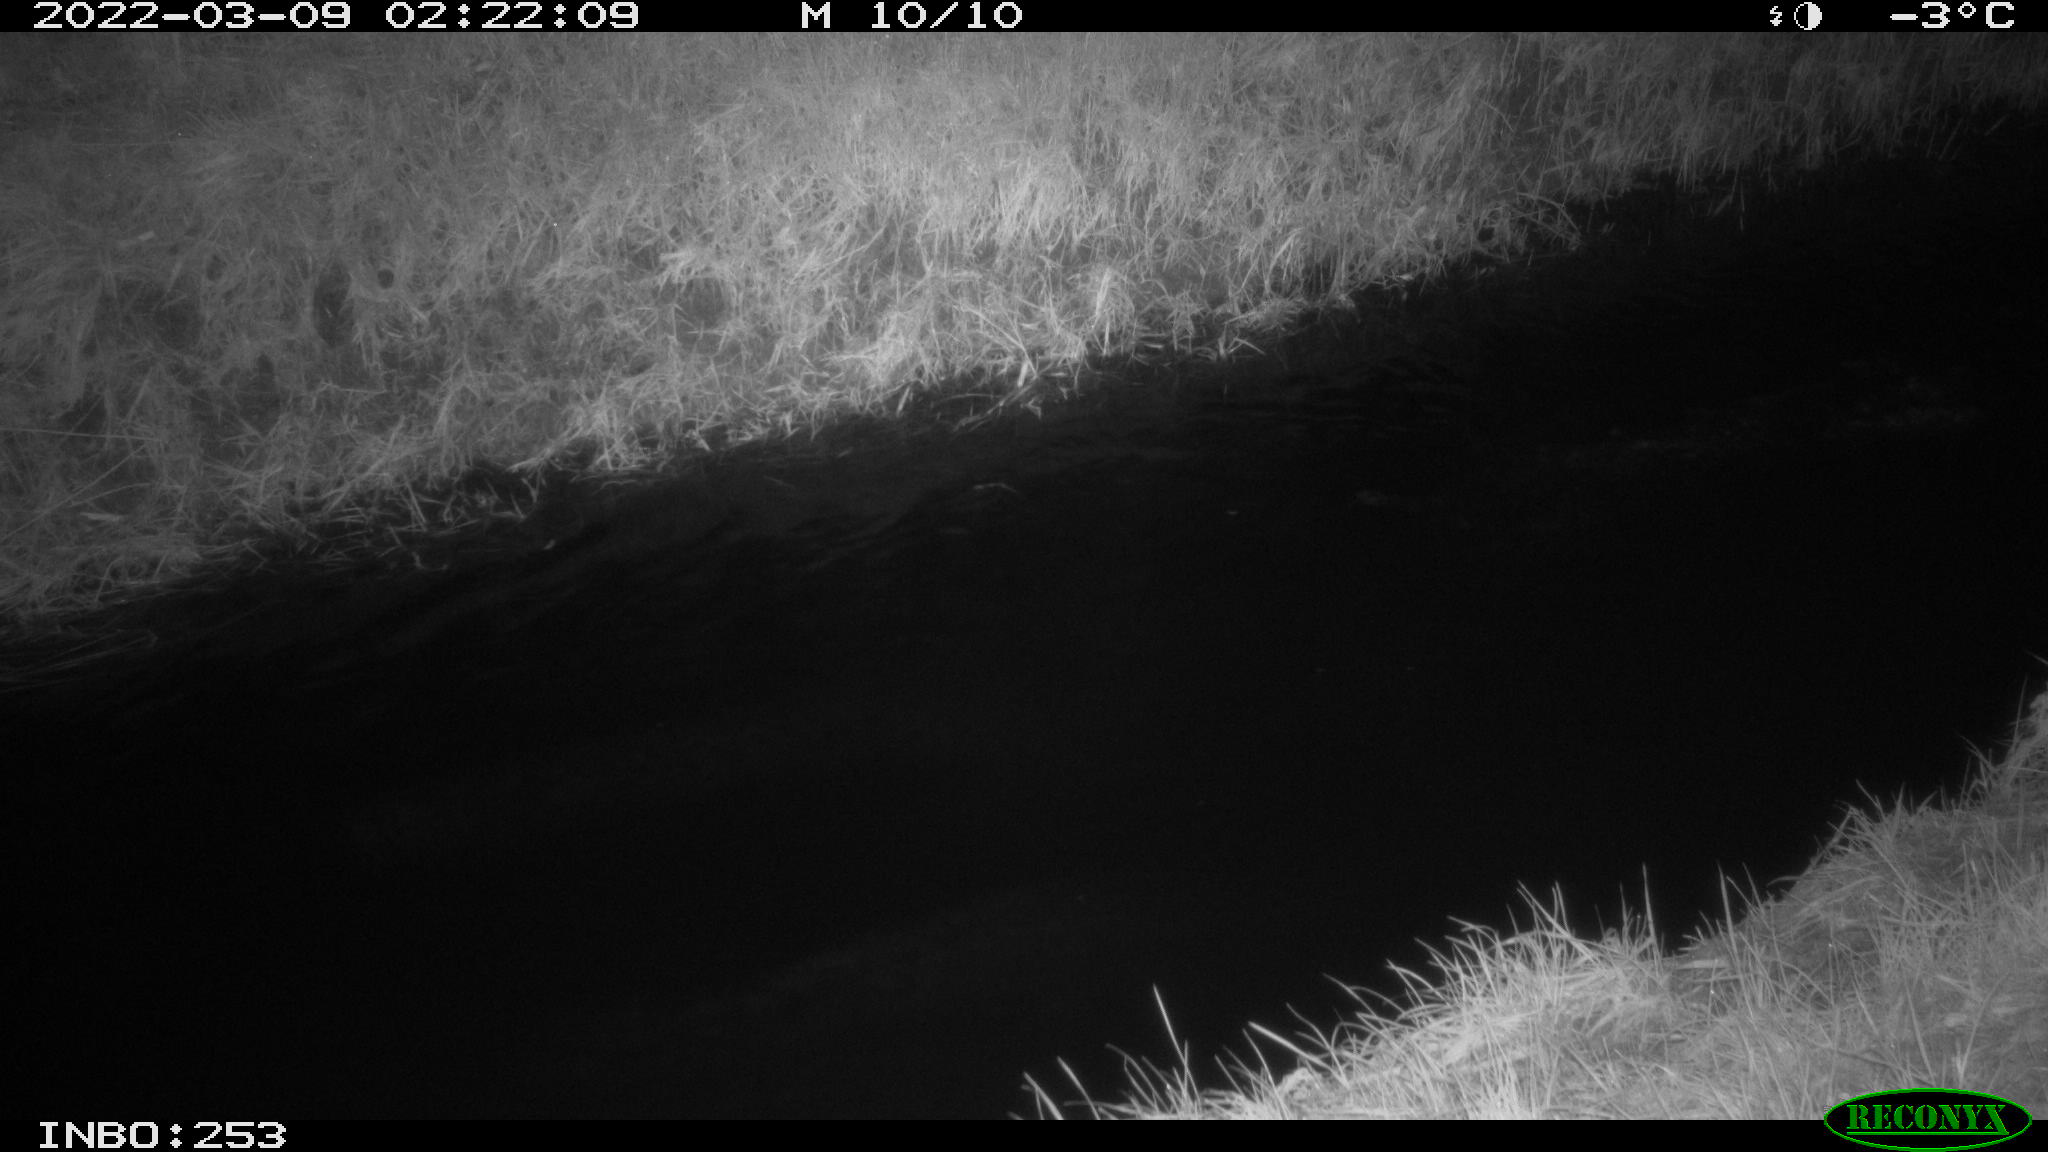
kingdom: Animalia
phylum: Chordata
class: Aves
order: Anseriformes
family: Anatidae
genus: Anas
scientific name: Anas platyrhynchos
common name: Mallard
